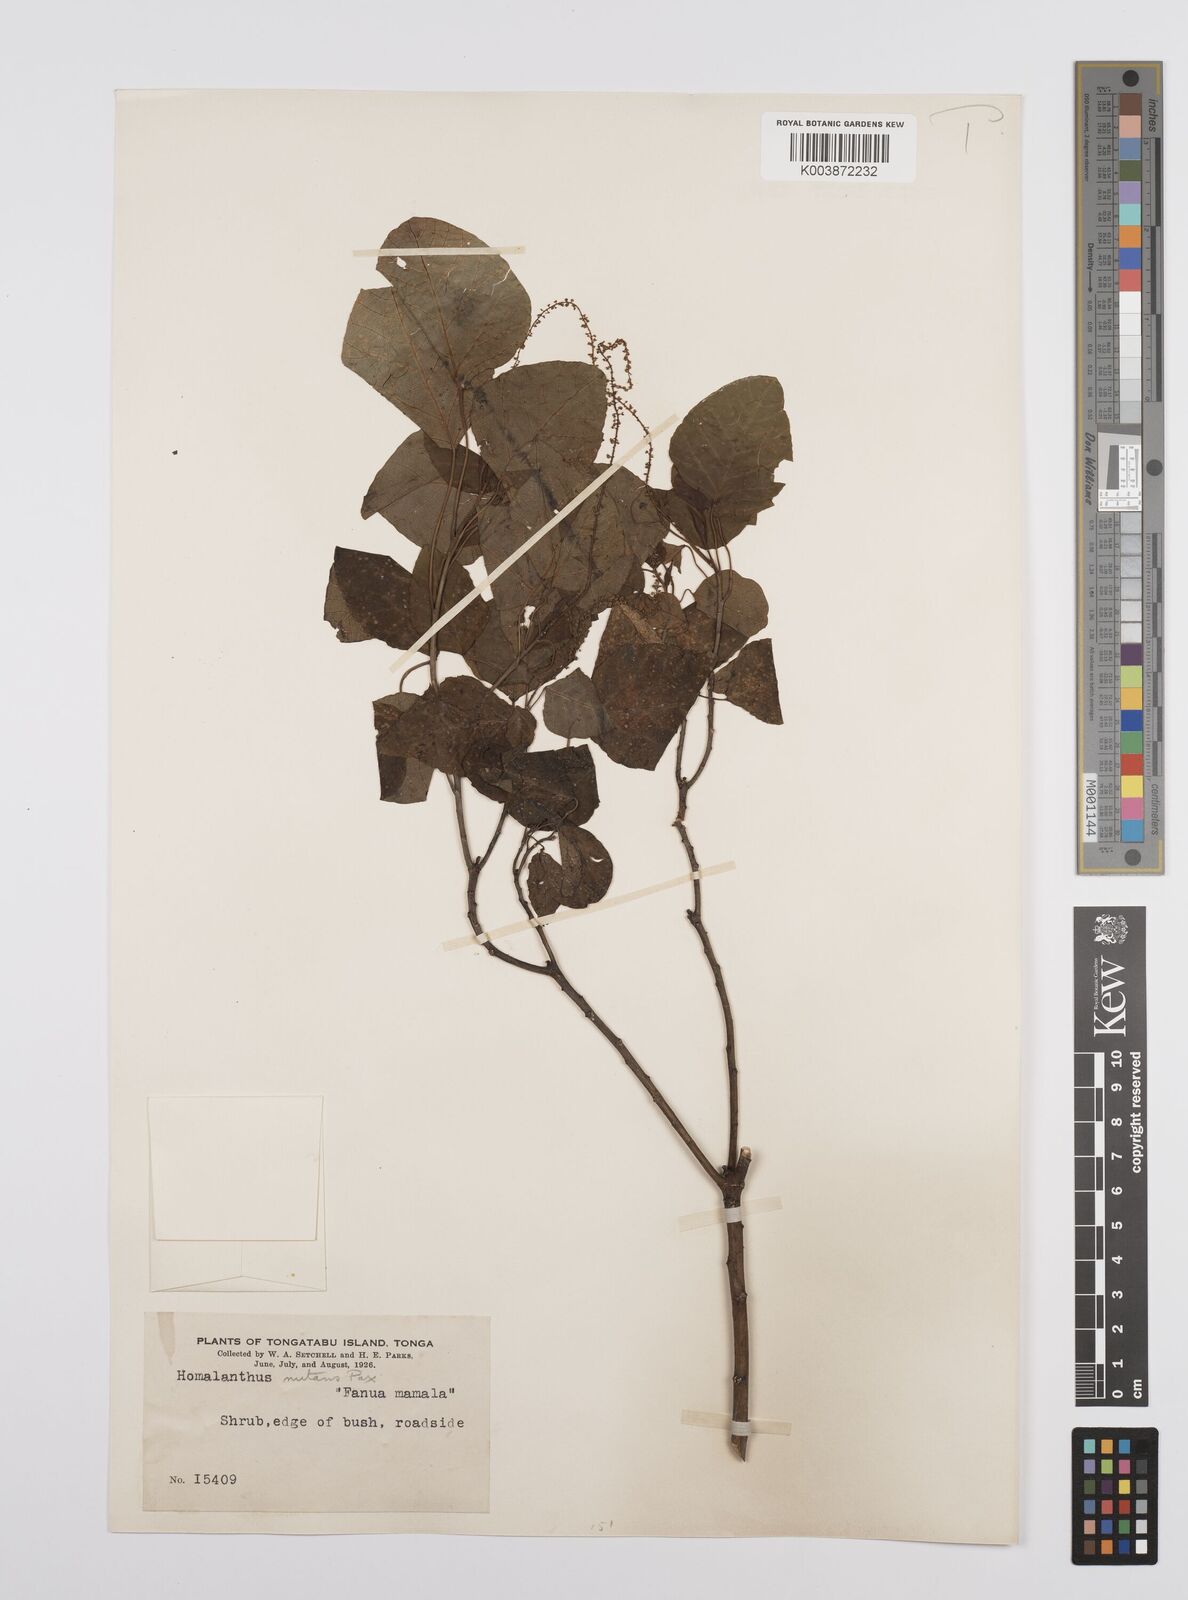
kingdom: Plantae
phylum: Tracheophyta
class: Magnoliopsida
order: Malpighiales
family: Euphorbiaceae
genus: Homalanthus
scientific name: Homalanthus nutans
